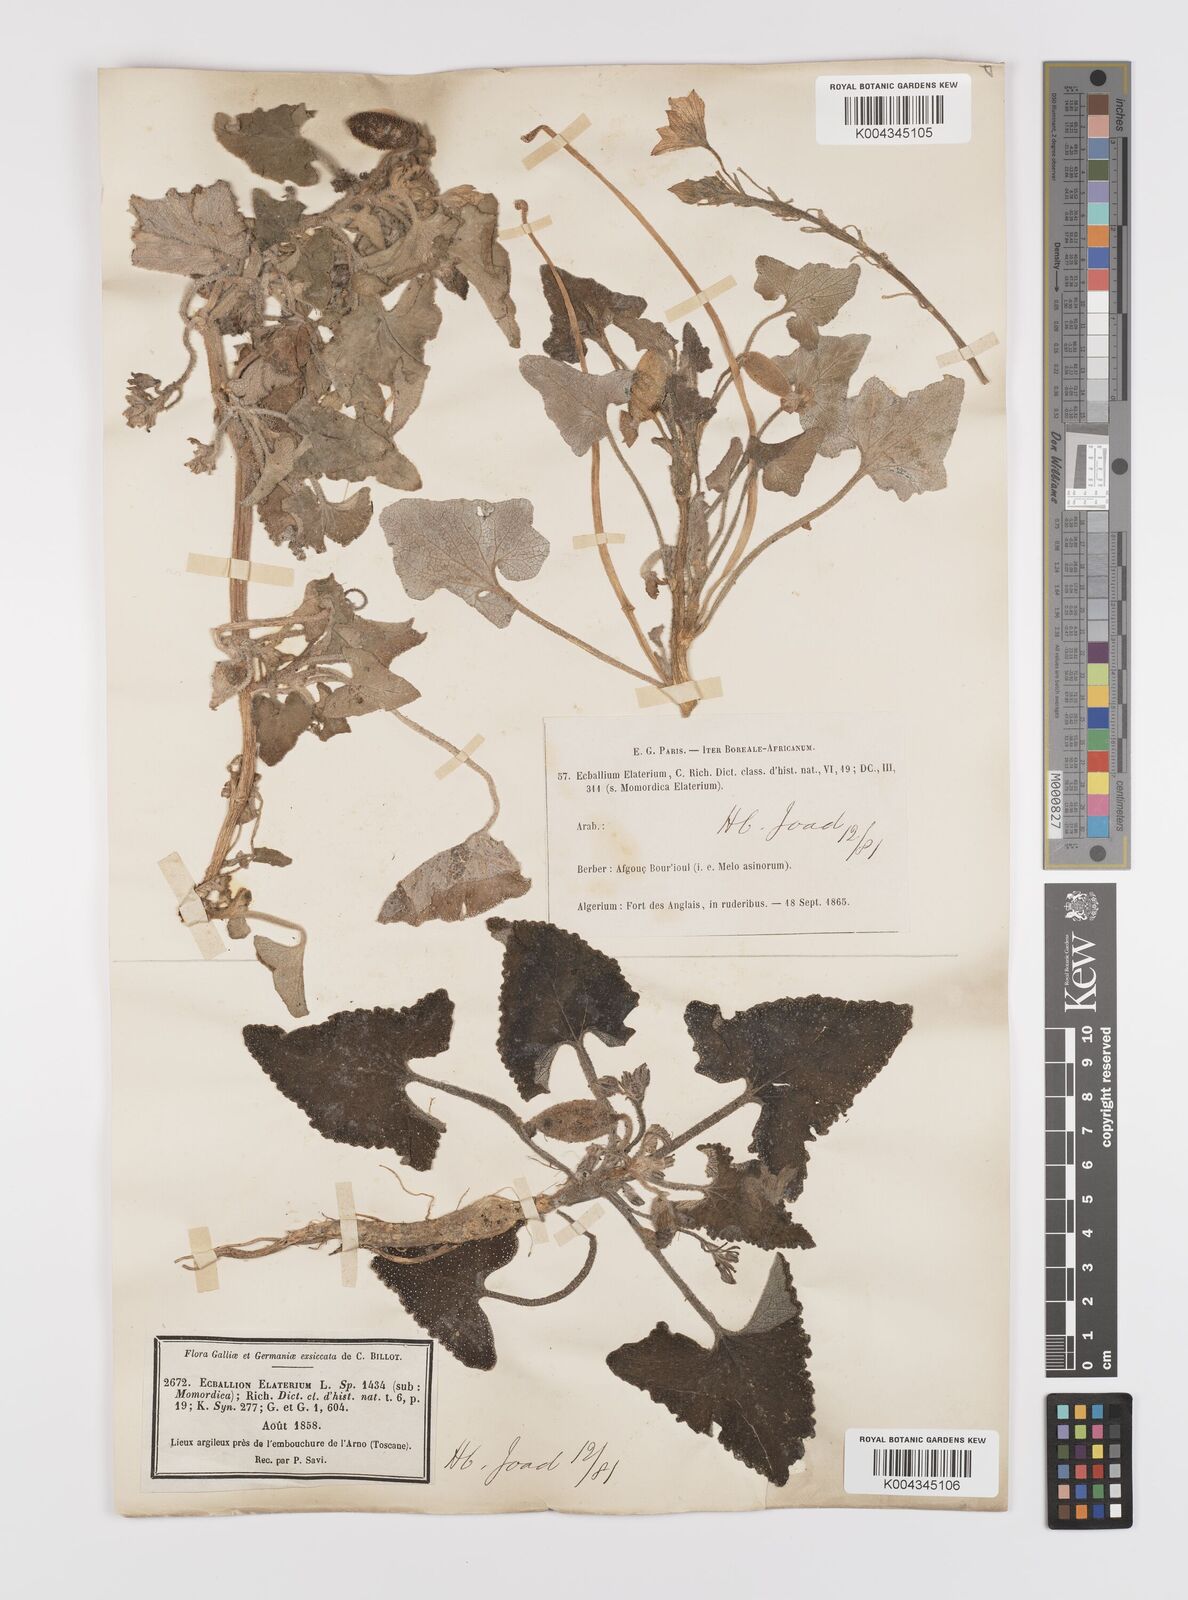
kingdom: Plantae
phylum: Tracheophyta
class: Magnoliopsida
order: Cucurbitales
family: Cucurbitaceae
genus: Ecballium
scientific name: Ecballium elaterium
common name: Squirting cucumber
